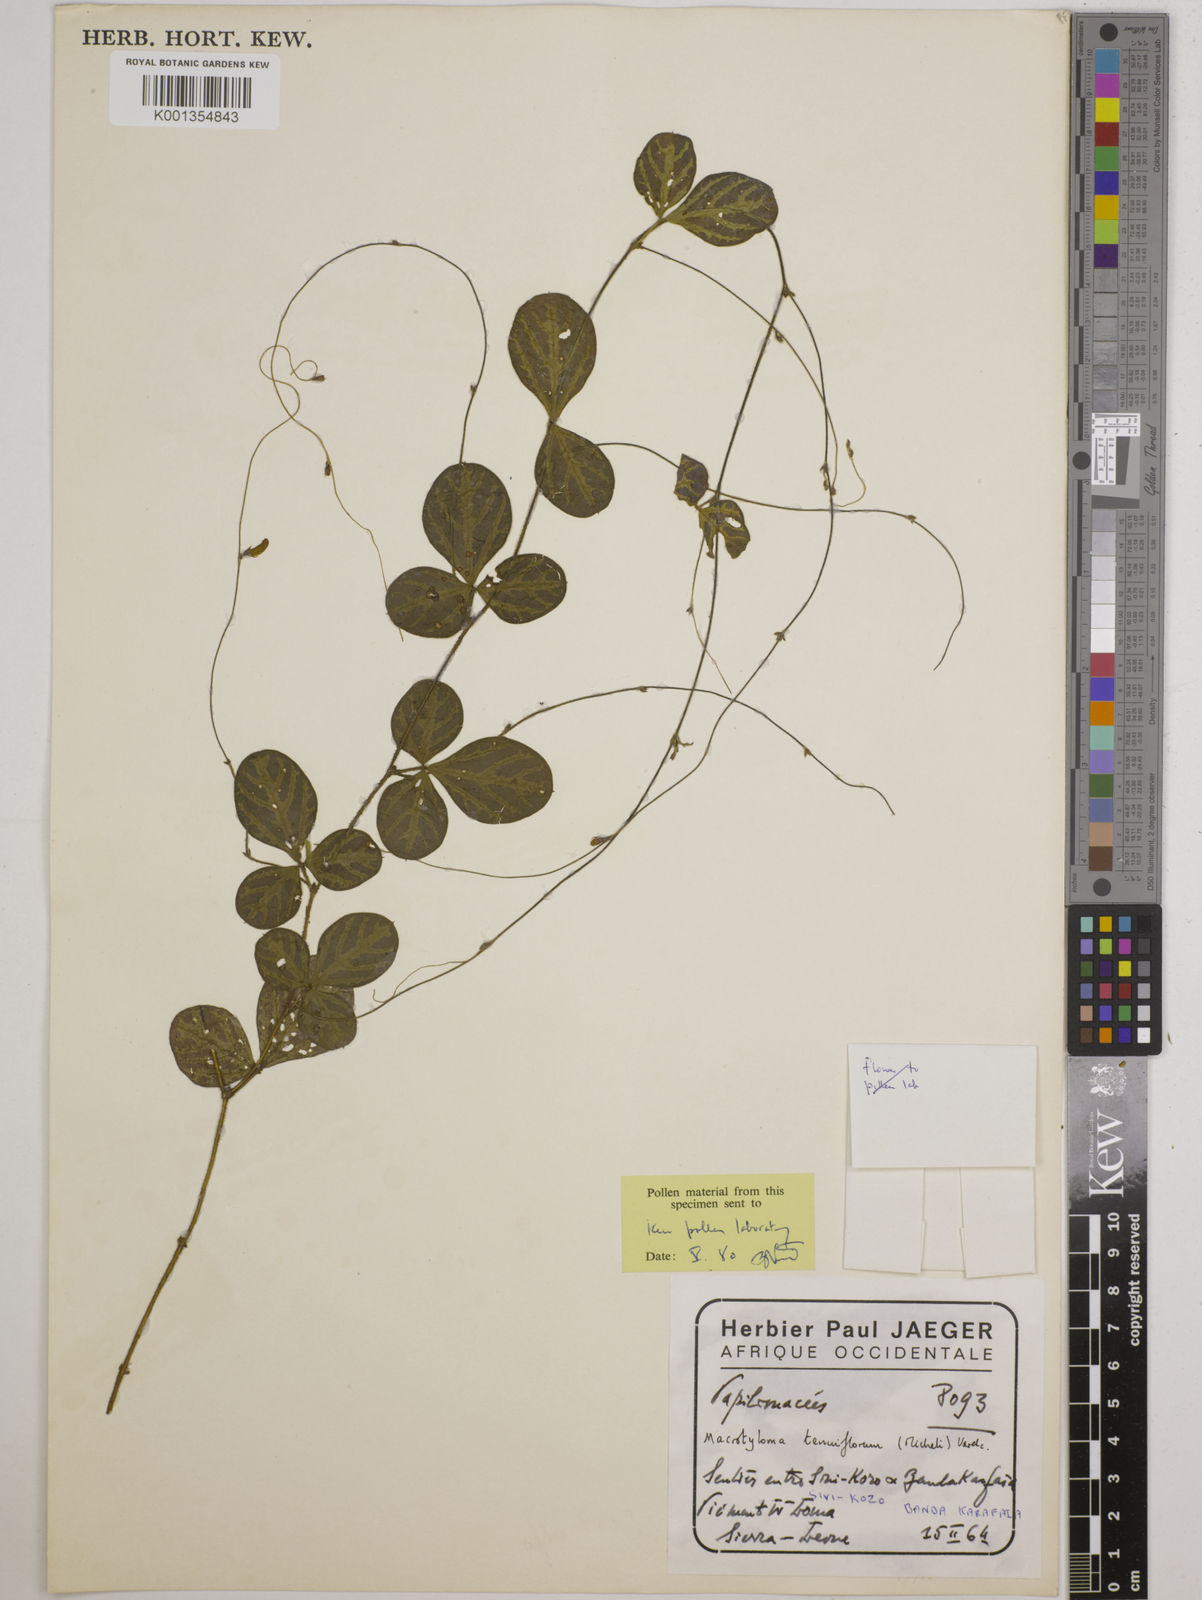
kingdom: Plantae
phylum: Tracheophyta
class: Magnoliopsida
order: Fabales
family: Fabaceae
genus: Macrotyloma
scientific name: Macrotyloma tenuiflorum
